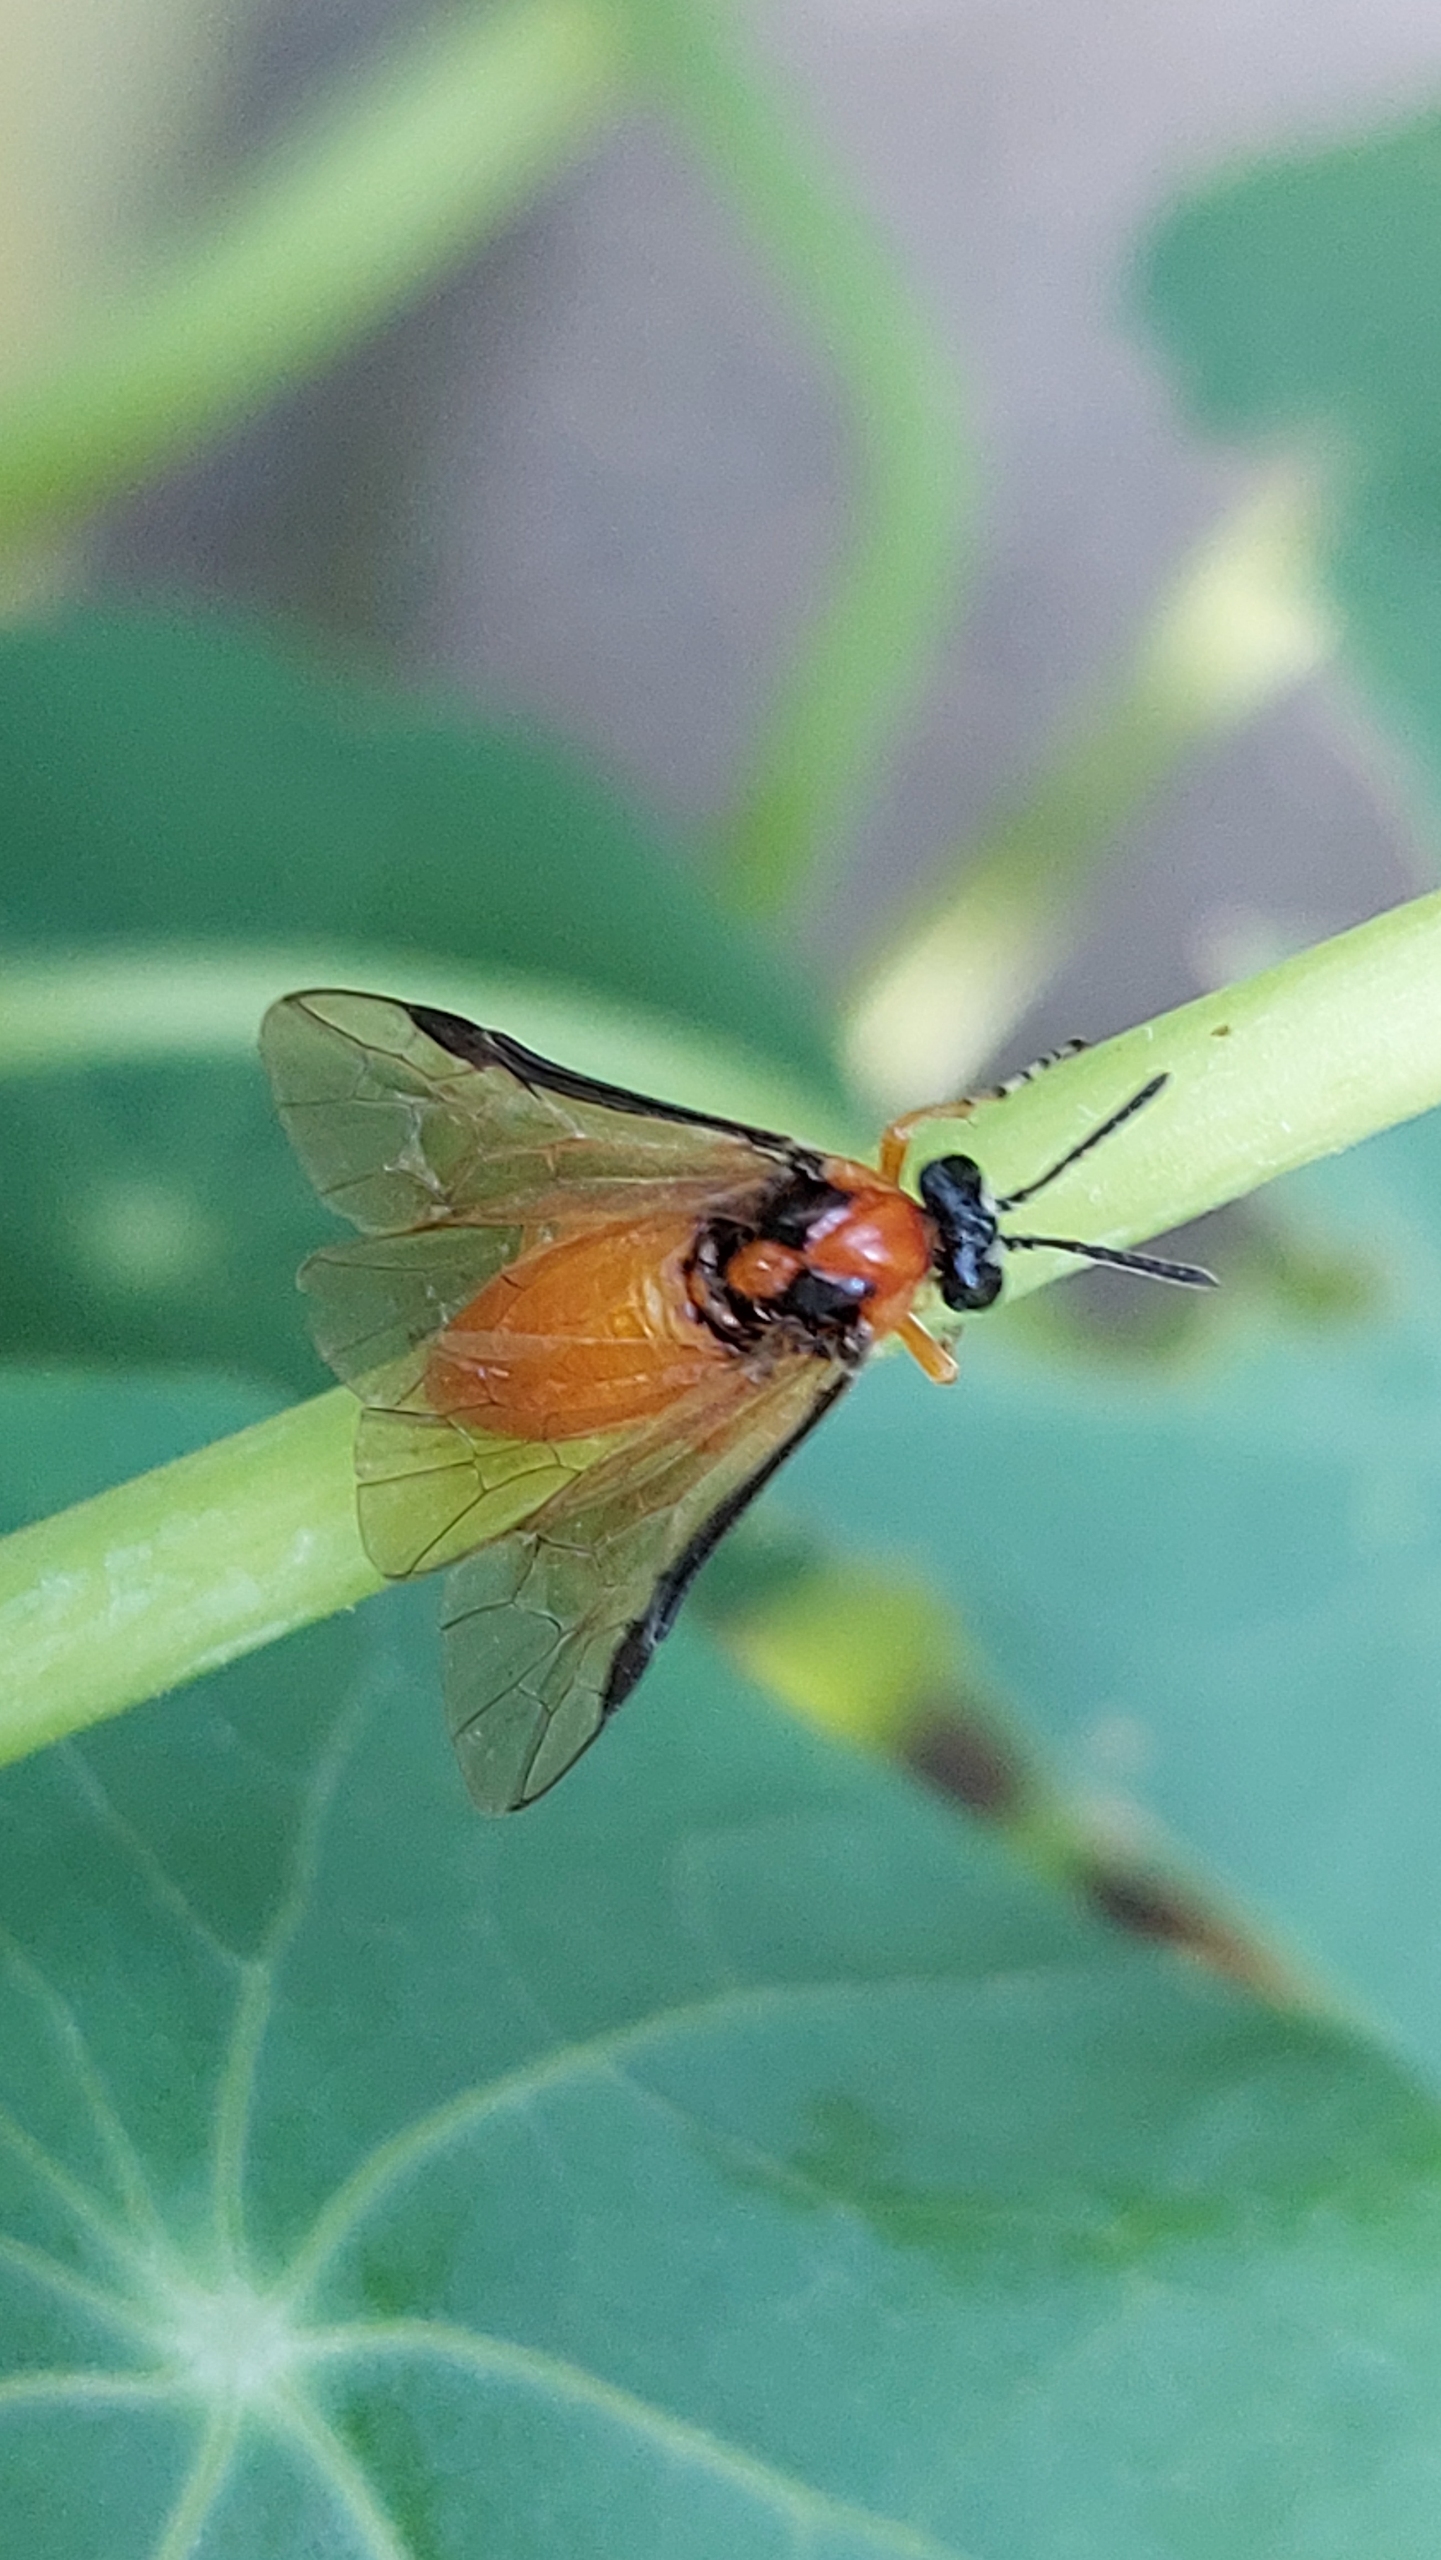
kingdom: Animalia
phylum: Arthropoda
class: Insecta
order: Hymenoptera
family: Tenthredinidae
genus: Athalia
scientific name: Athalia rosae
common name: Kålbladhveps
